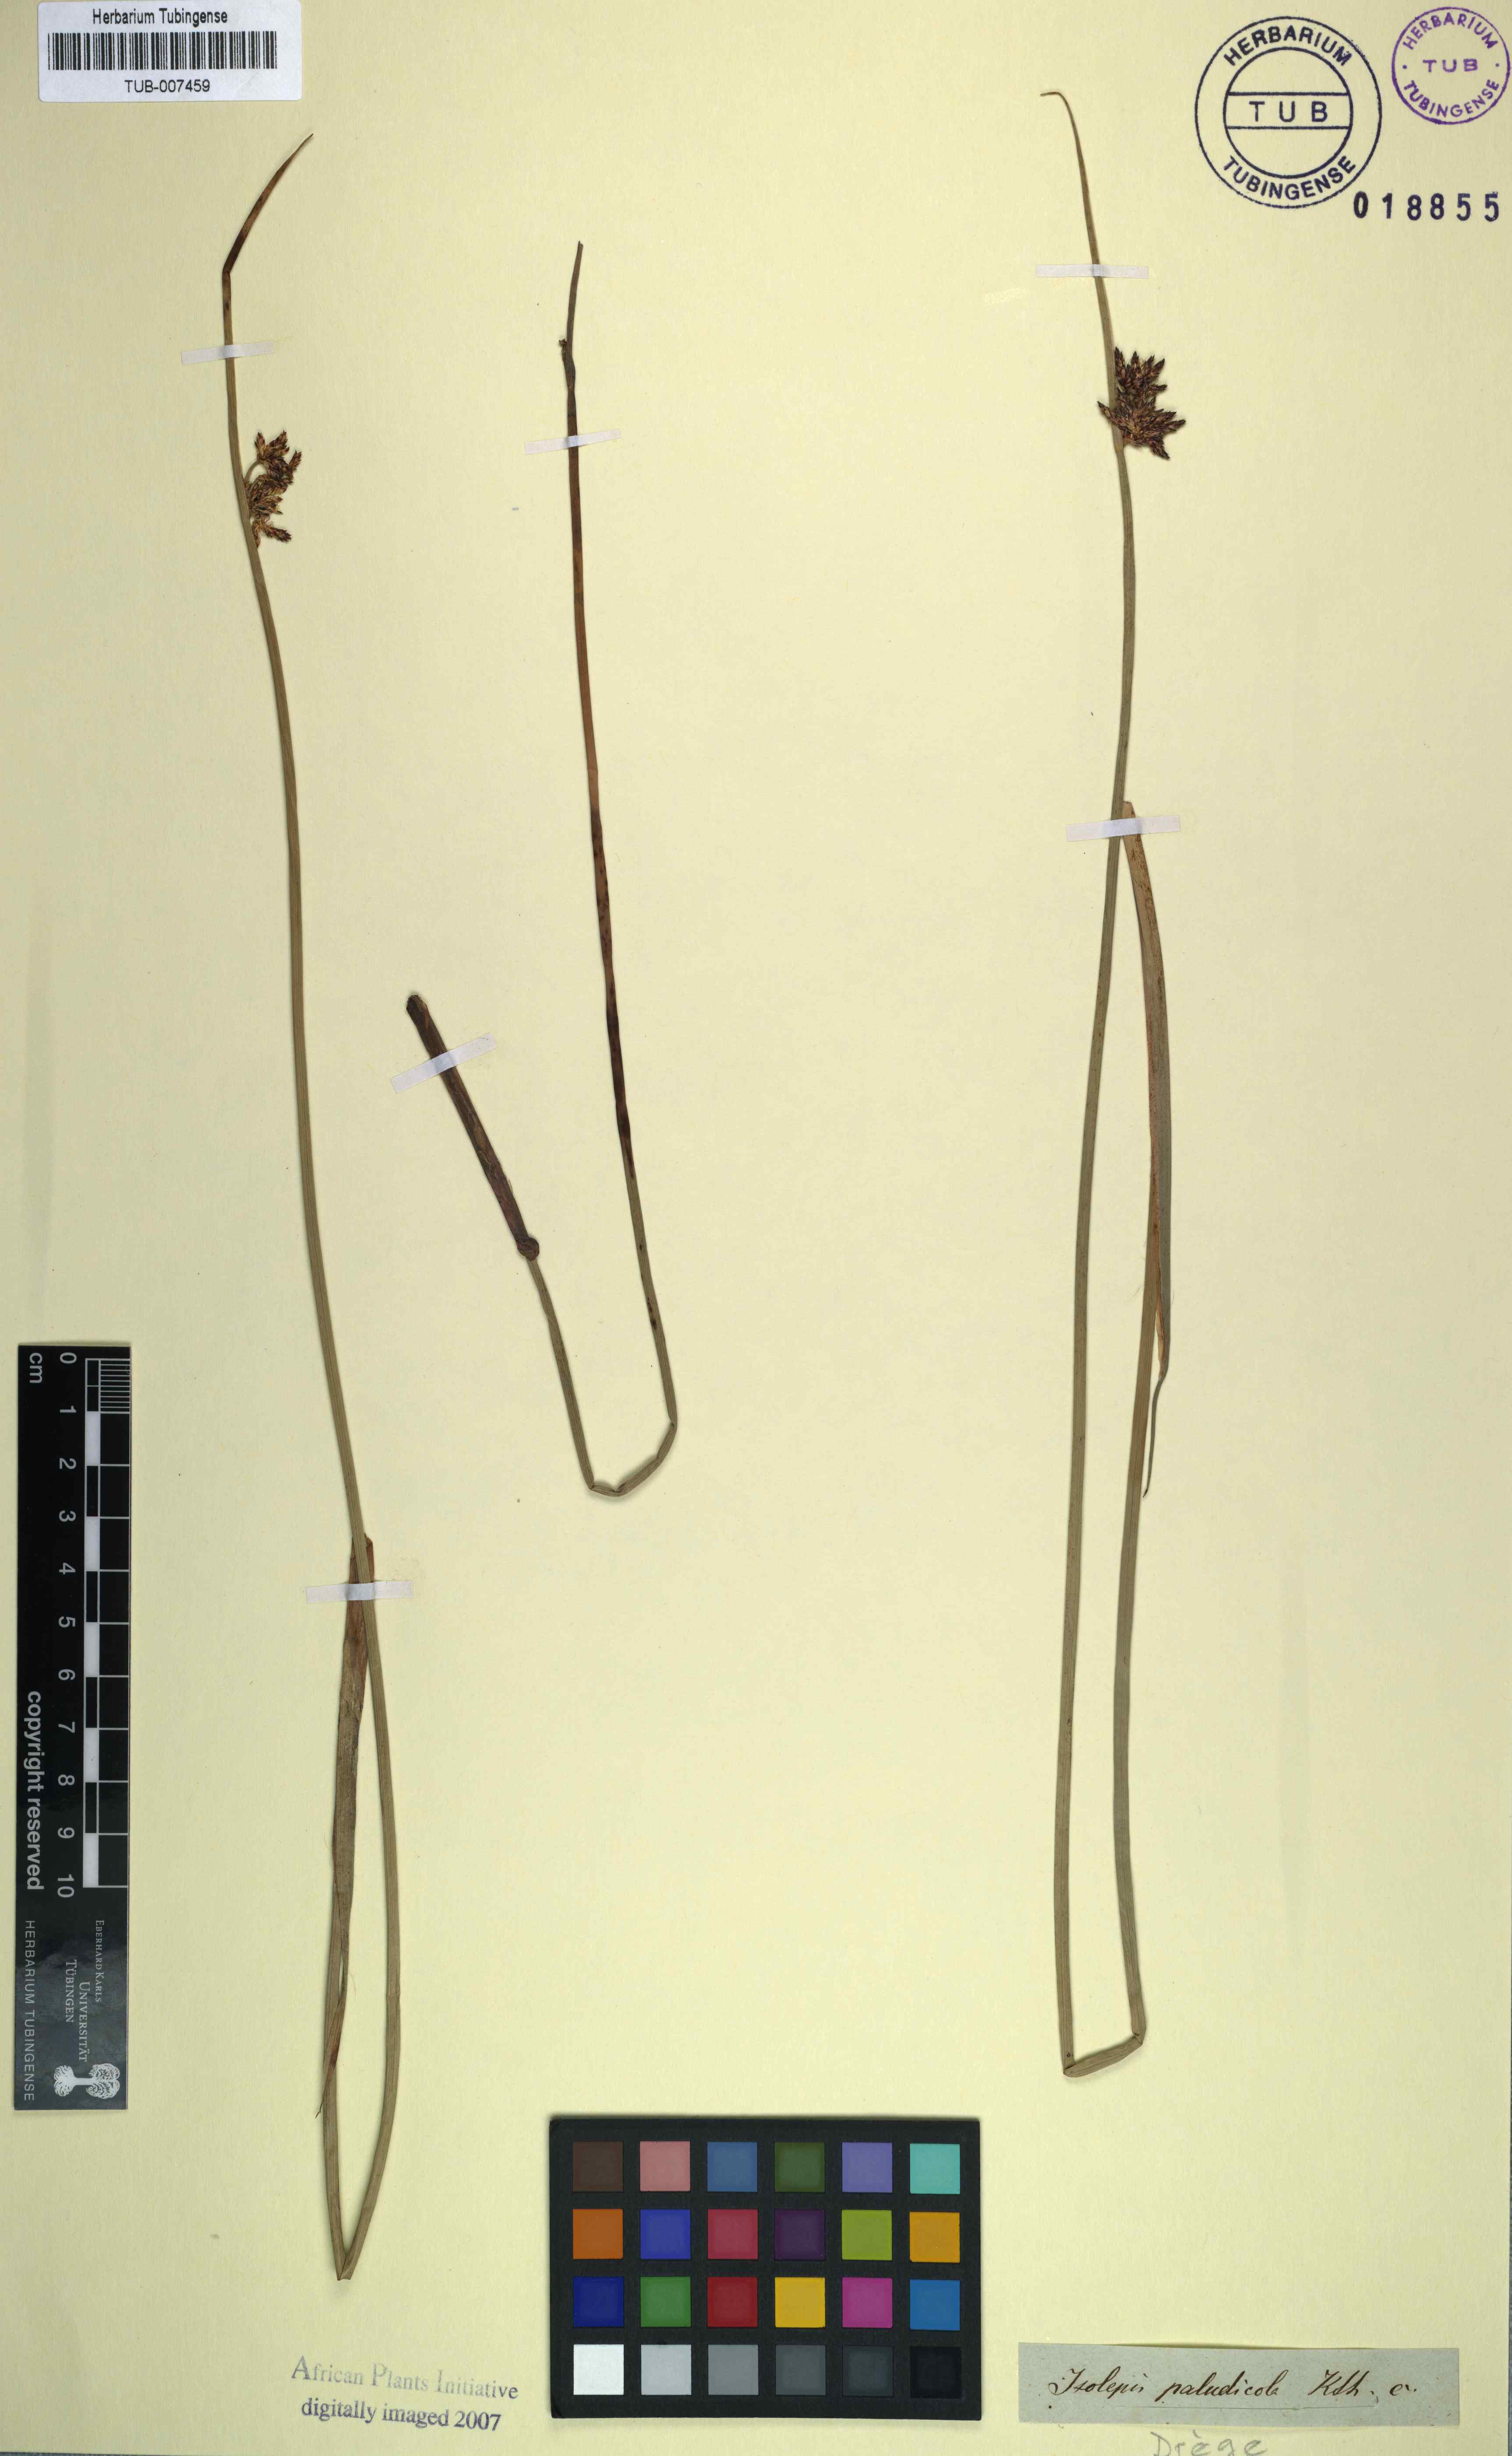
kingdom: Plantae
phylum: Tracheophyta
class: Liliopsida
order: Poales
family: Cyperaceae
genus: Schoenoplectiella
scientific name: Schoenoplectiella paludicola
